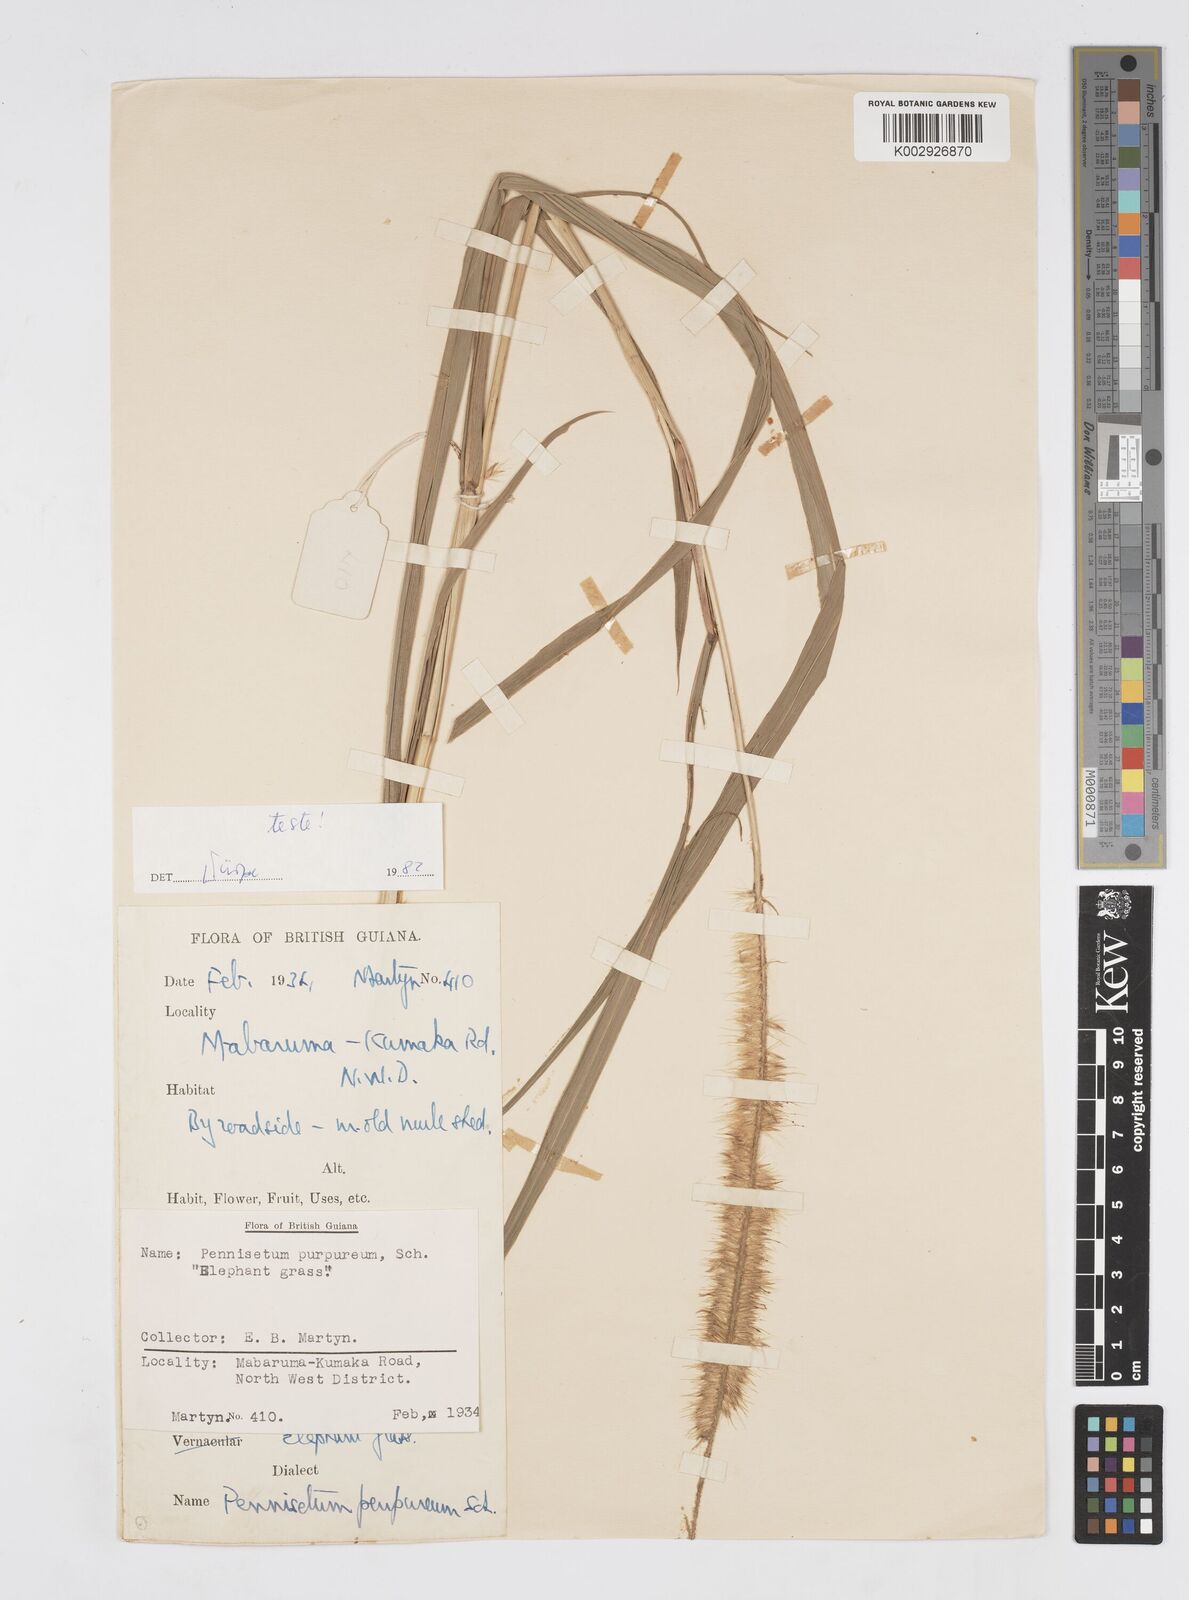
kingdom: Plantae
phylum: Tracheophyta
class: Liliopsida
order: Poales
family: Poaceae
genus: Cenchrus
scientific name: Cenchrus purpureus
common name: Elephant grass
